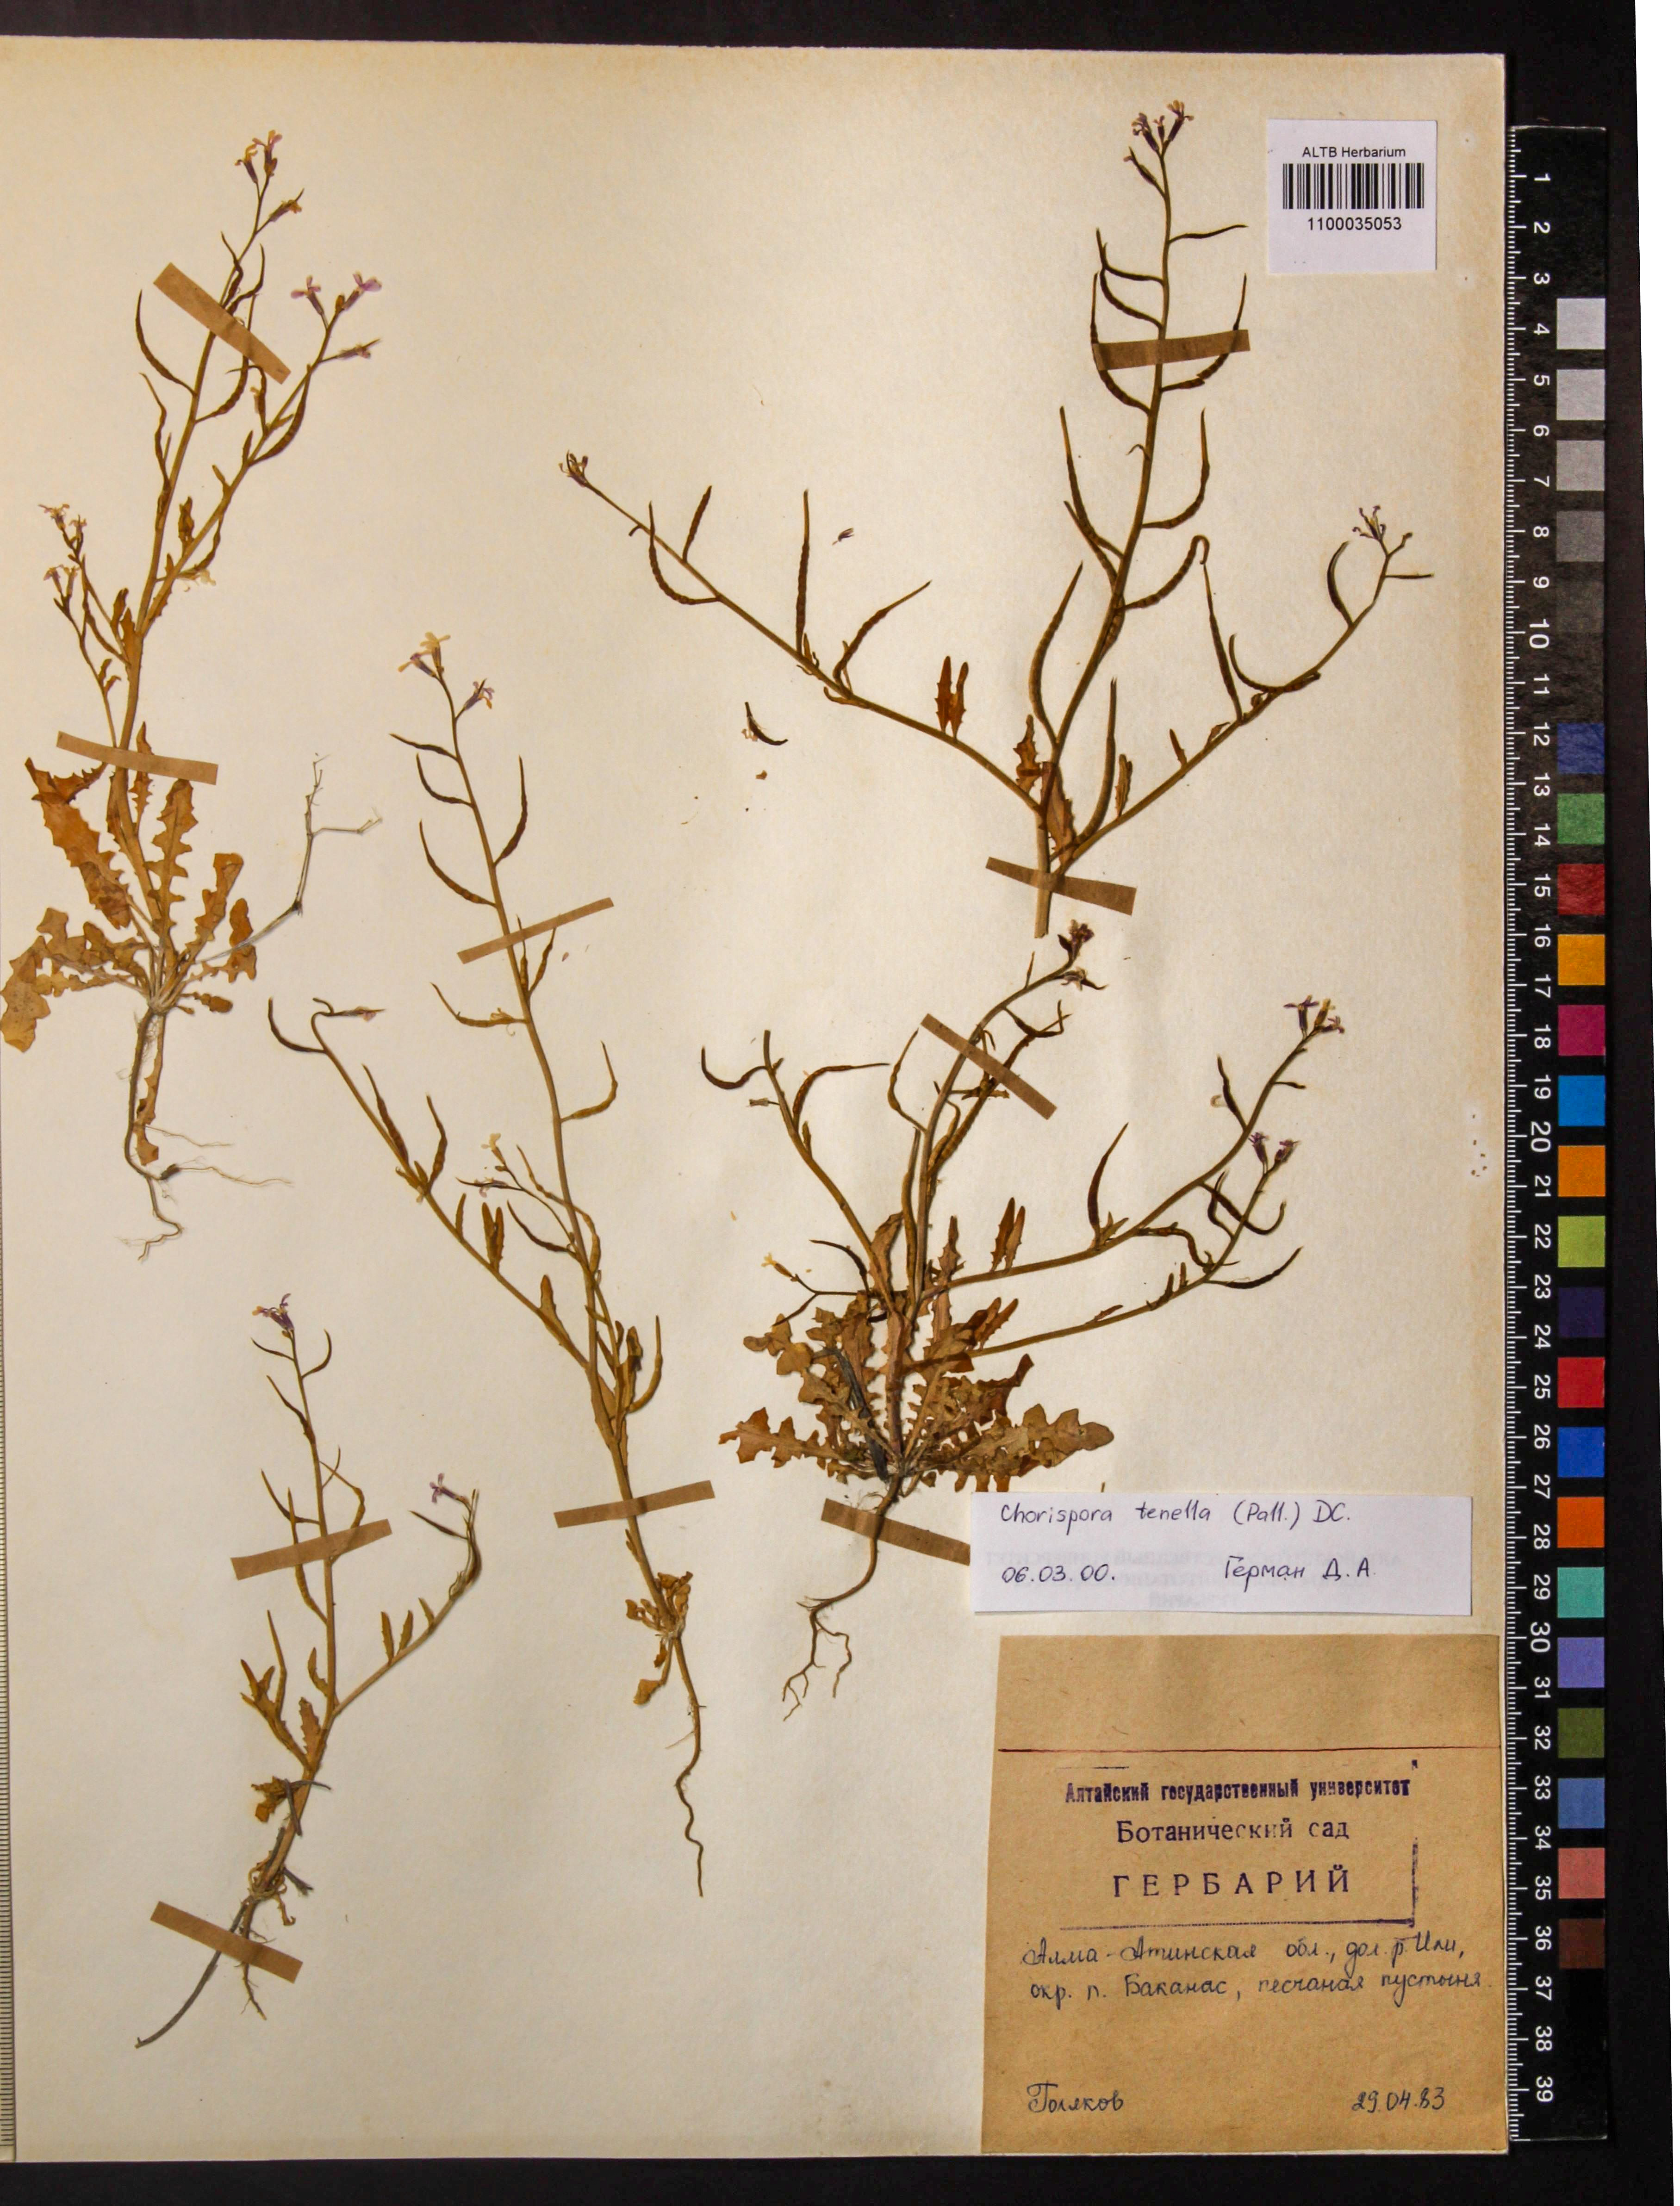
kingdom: Plantae
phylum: Tracheophyta
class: Magnoliopsida
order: Brassicales
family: Brassicaceae
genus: Chorispora
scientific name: Chorispora tenella
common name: Crossflower
